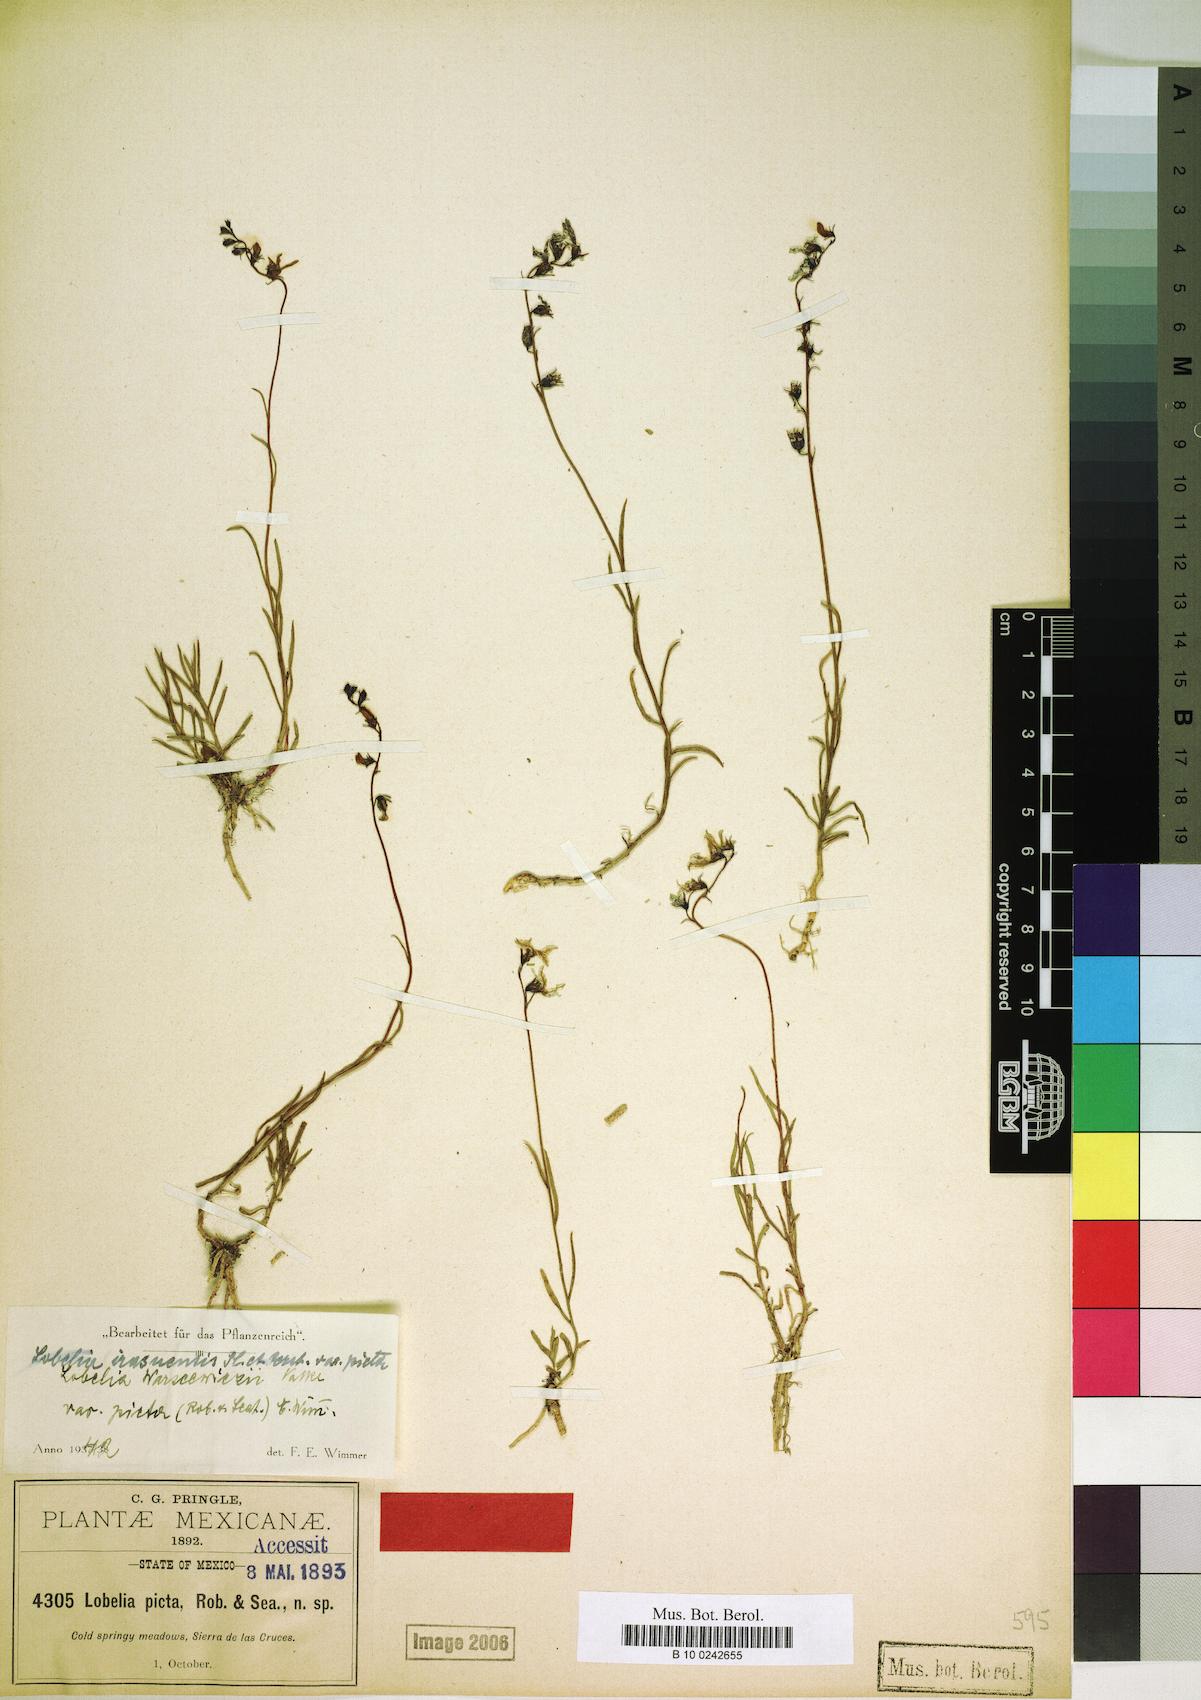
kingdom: Plantae
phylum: Tracheophyta
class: Magnoliopsida
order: Asterales
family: Campanulaceae
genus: Lobelia
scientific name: Lobelia irasuensis
